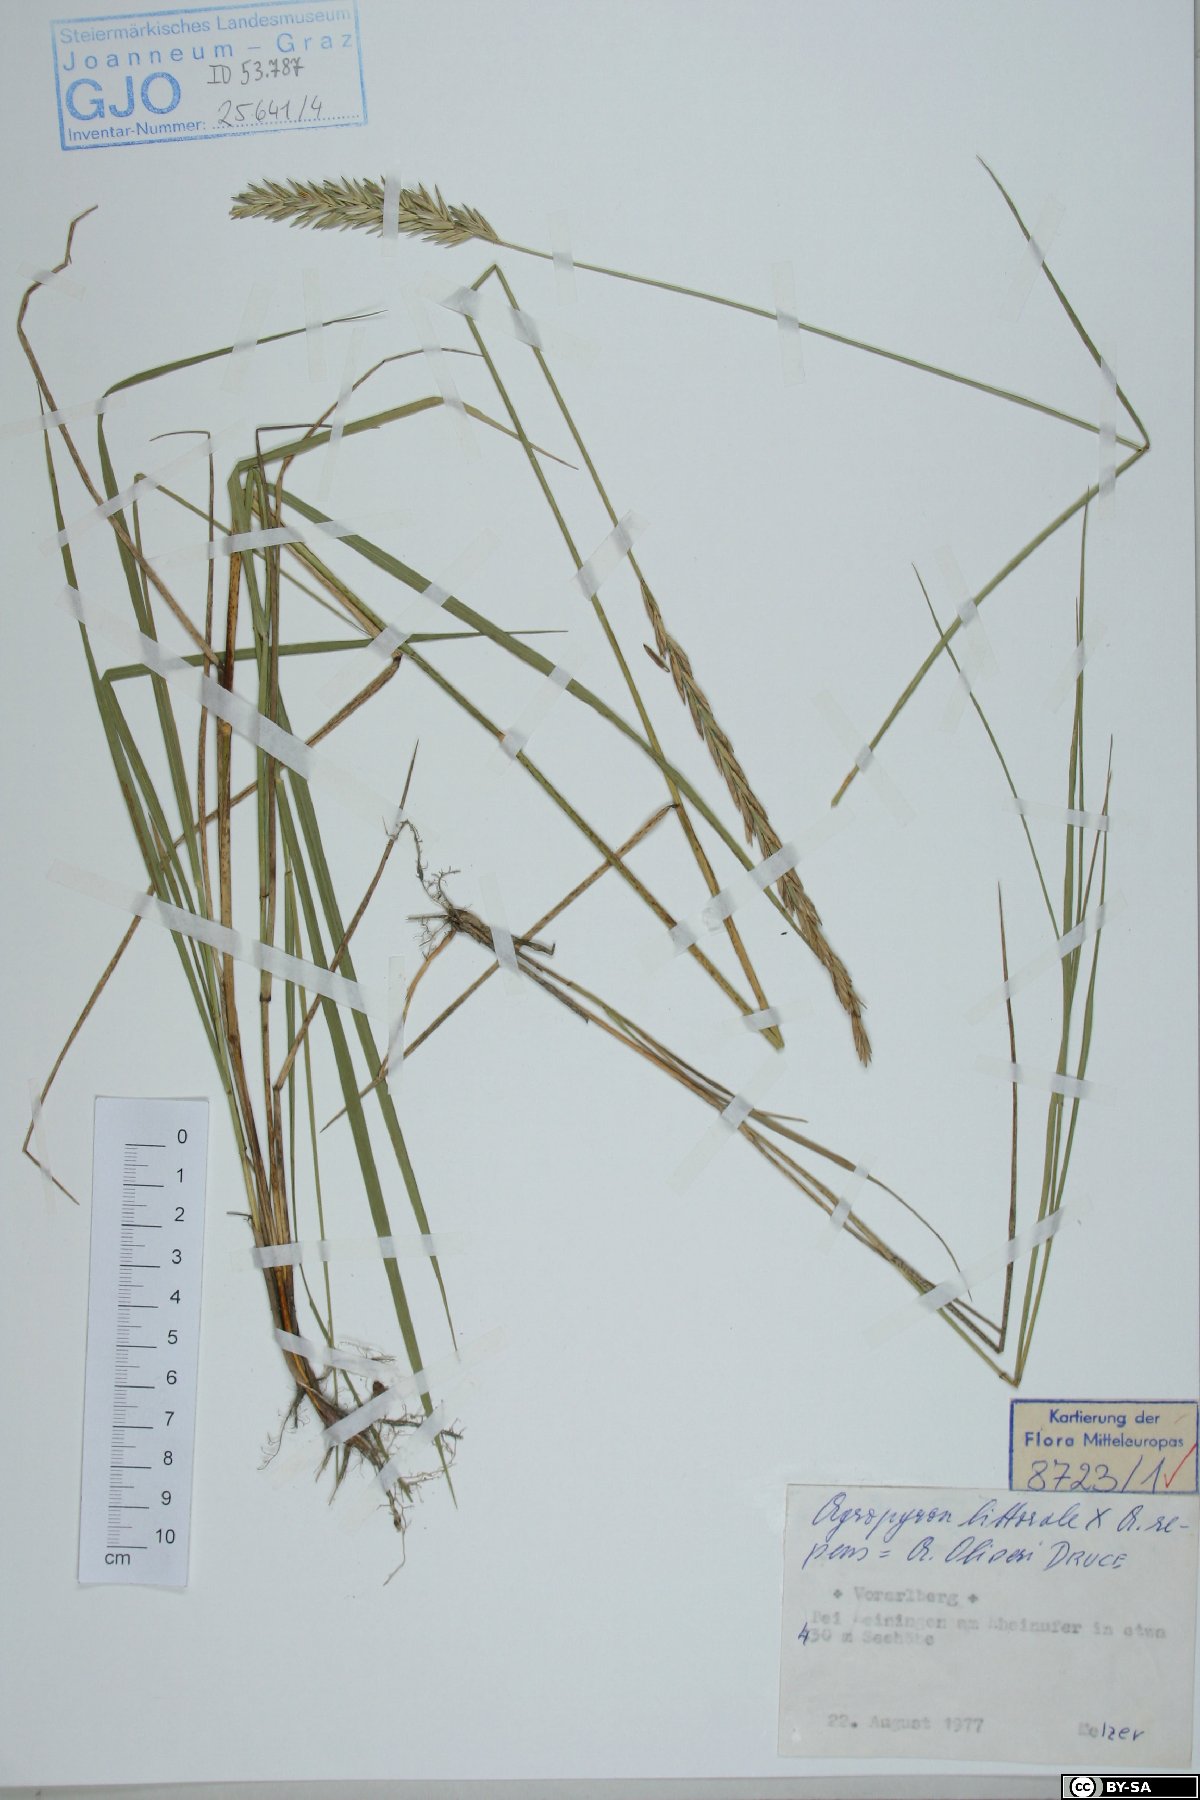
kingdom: Plantae
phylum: Tracheophyta
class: Liliopsida
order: Poales
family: Poaceae
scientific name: Poaceae
